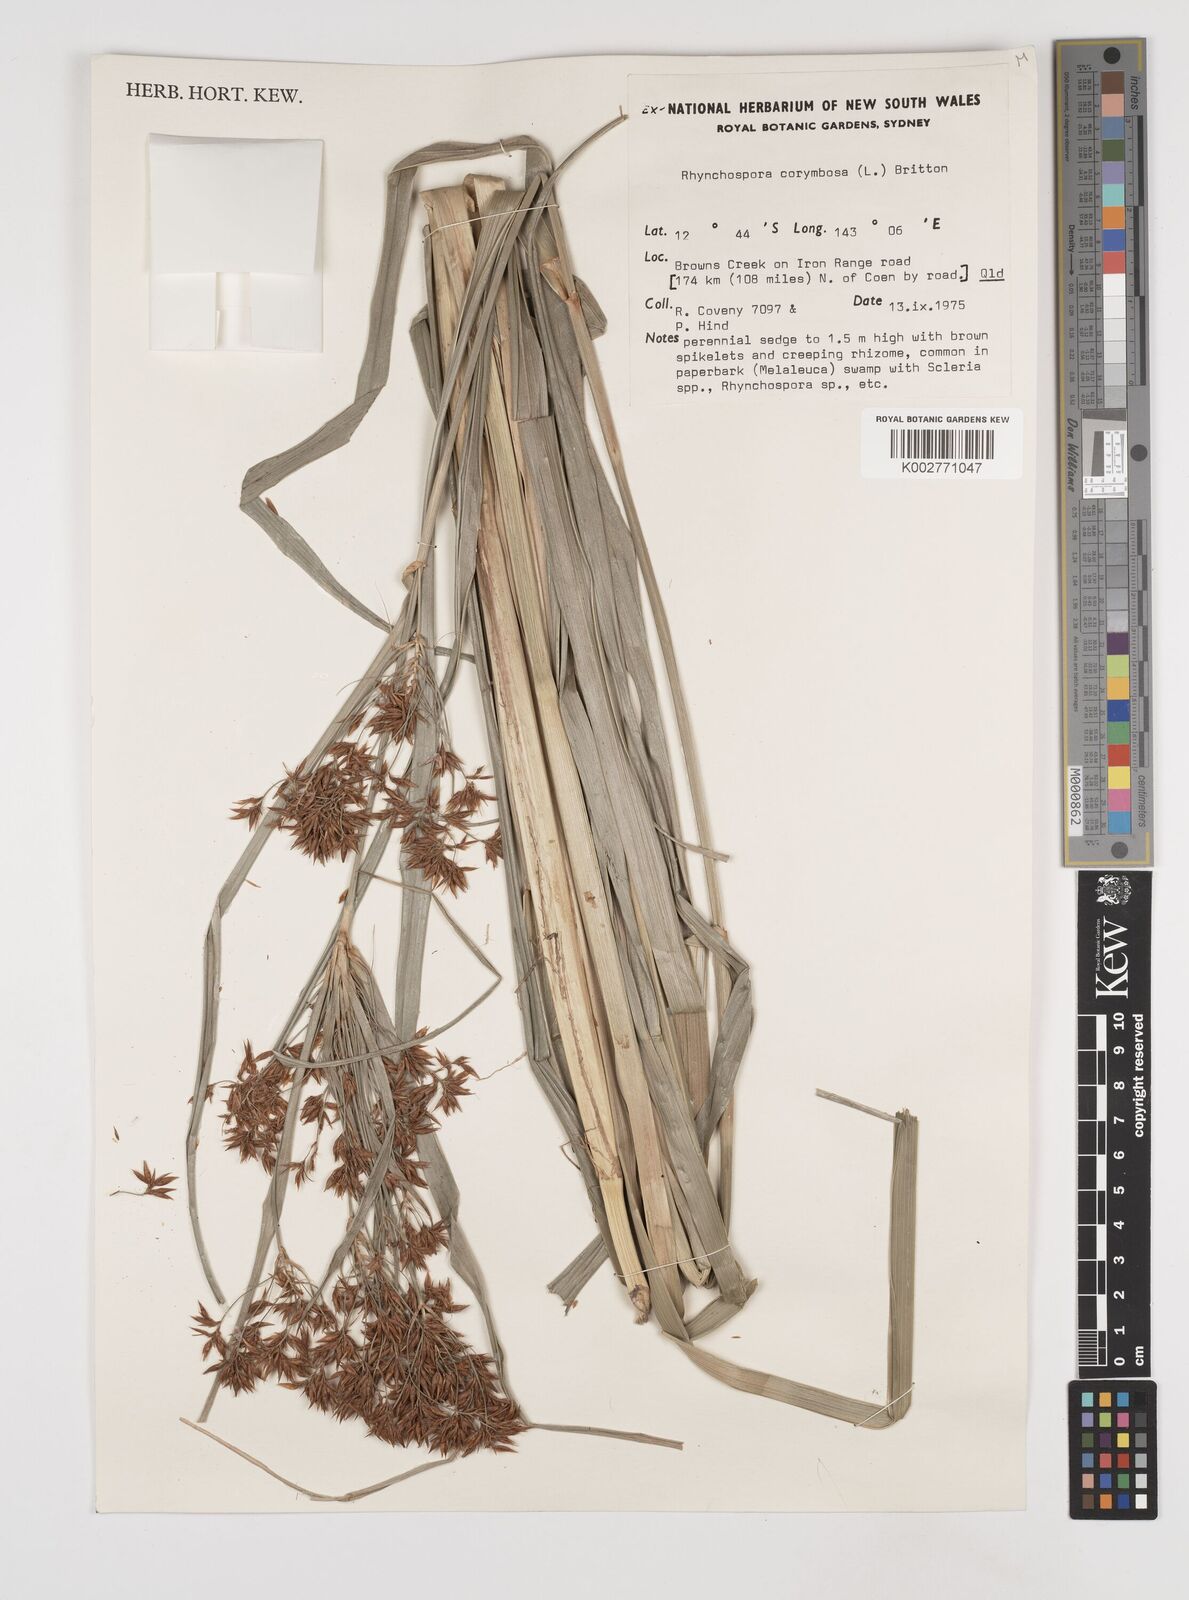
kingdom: Plantae
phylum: Tracheophyta
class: Liliopsida
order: Poales
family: Cyperaceae
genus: Rhynchospora
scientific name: Rhynchospora corymbosa
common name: Golden beak sedge
